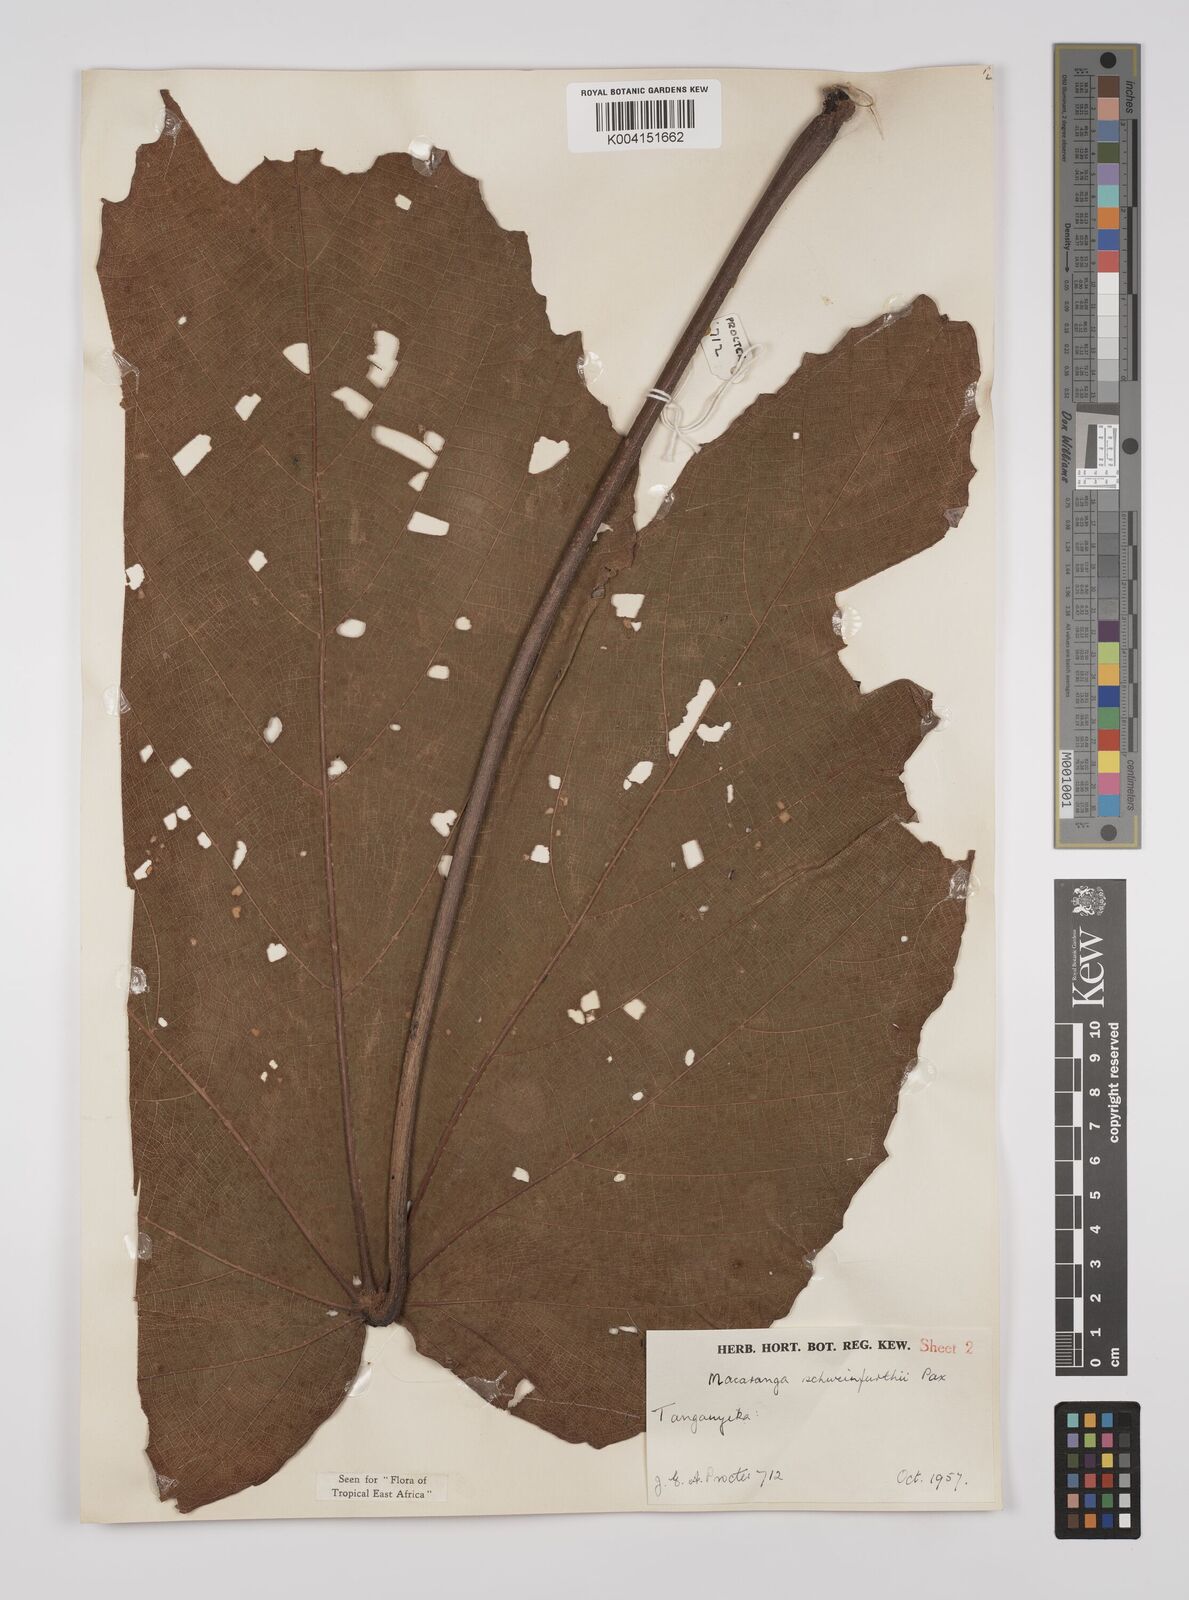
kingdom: Plantae
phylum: Tracheophyta
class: Magnoliopsida
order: Malpighiales
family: Euphorbiaceae
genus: Macaranga
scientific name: Macaranga schweinfurthii
